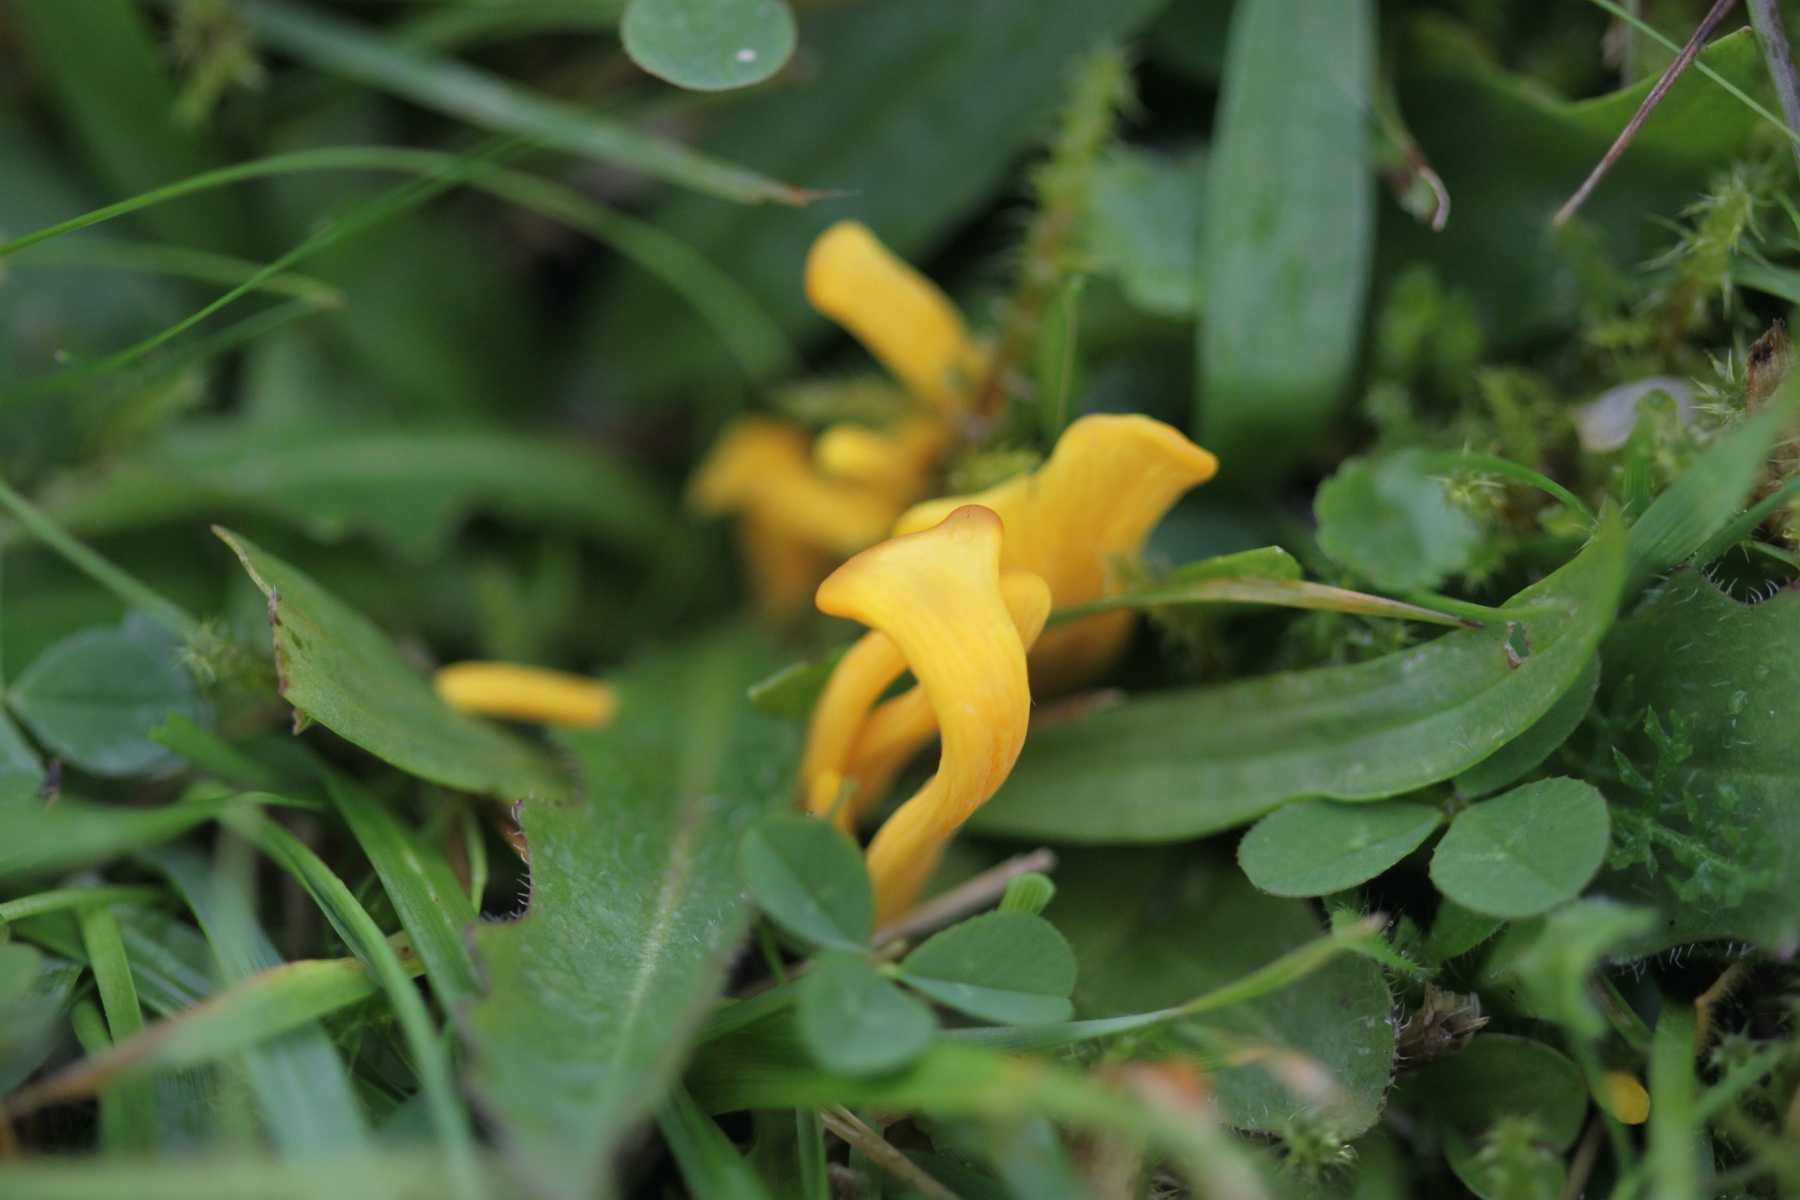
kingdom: Fungi
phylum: Basidiomycota
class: Agaricomycetes
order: Agaricales
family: Clavariaceae
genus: Clavulinopsis
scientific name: Clavulinopsis
